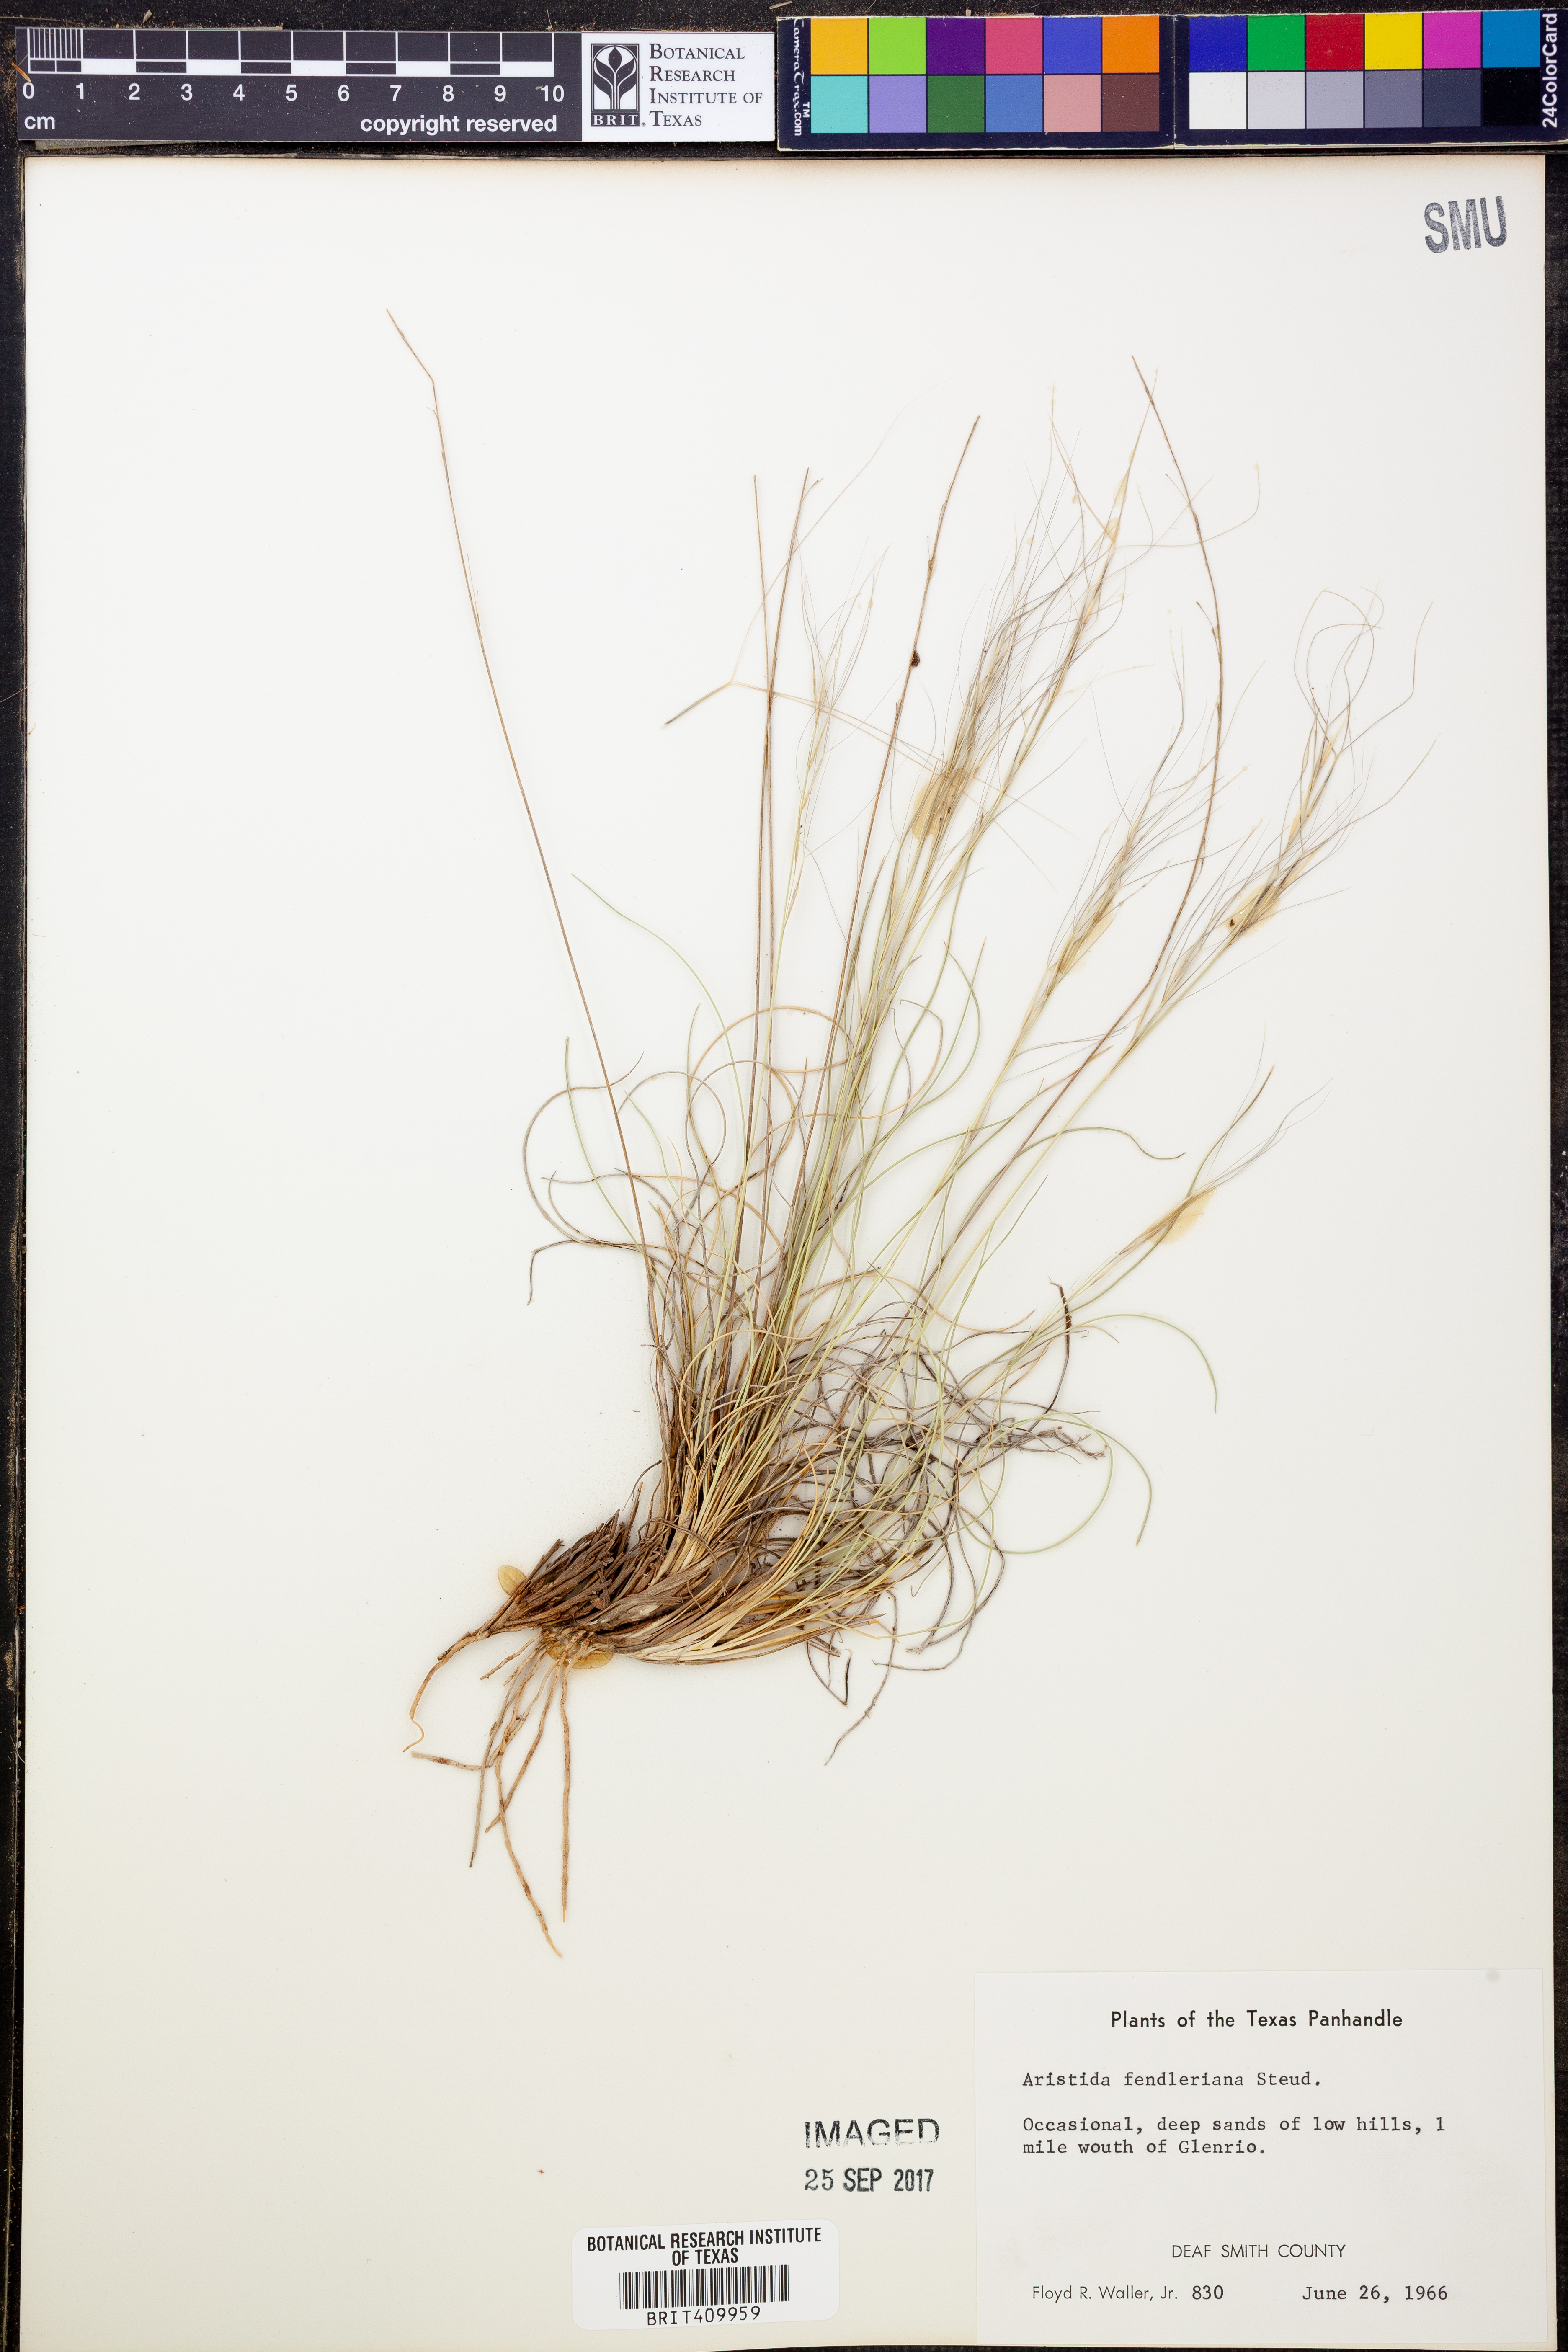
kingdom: Plantae
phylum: Tracheophyta
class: Liliopsida
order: Poales
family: Poaceae
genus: Aristida
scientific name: Aristida fendleriana
